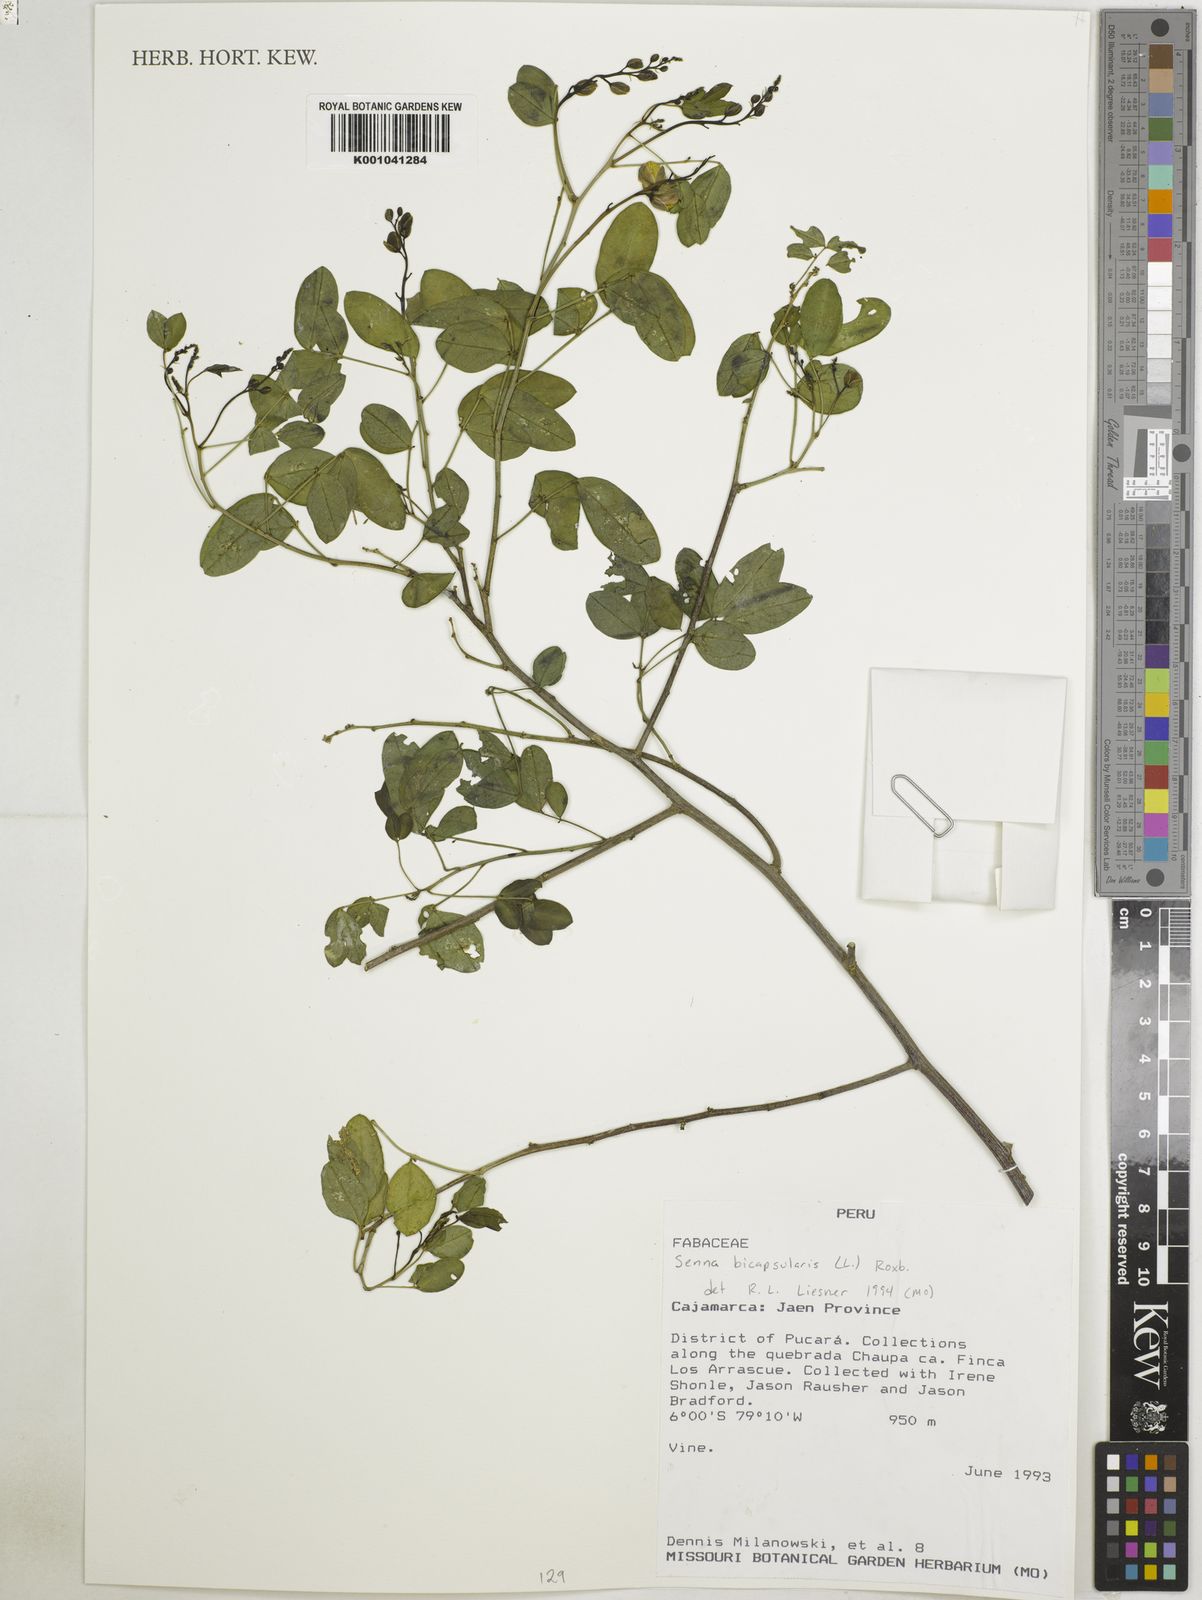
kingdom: Plantae
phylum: Tracheophyta
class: Magnoliopsida
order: Fabales
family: Fabaceae
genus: Senna
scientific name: Senna bicapsularis
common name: Christmasbush
